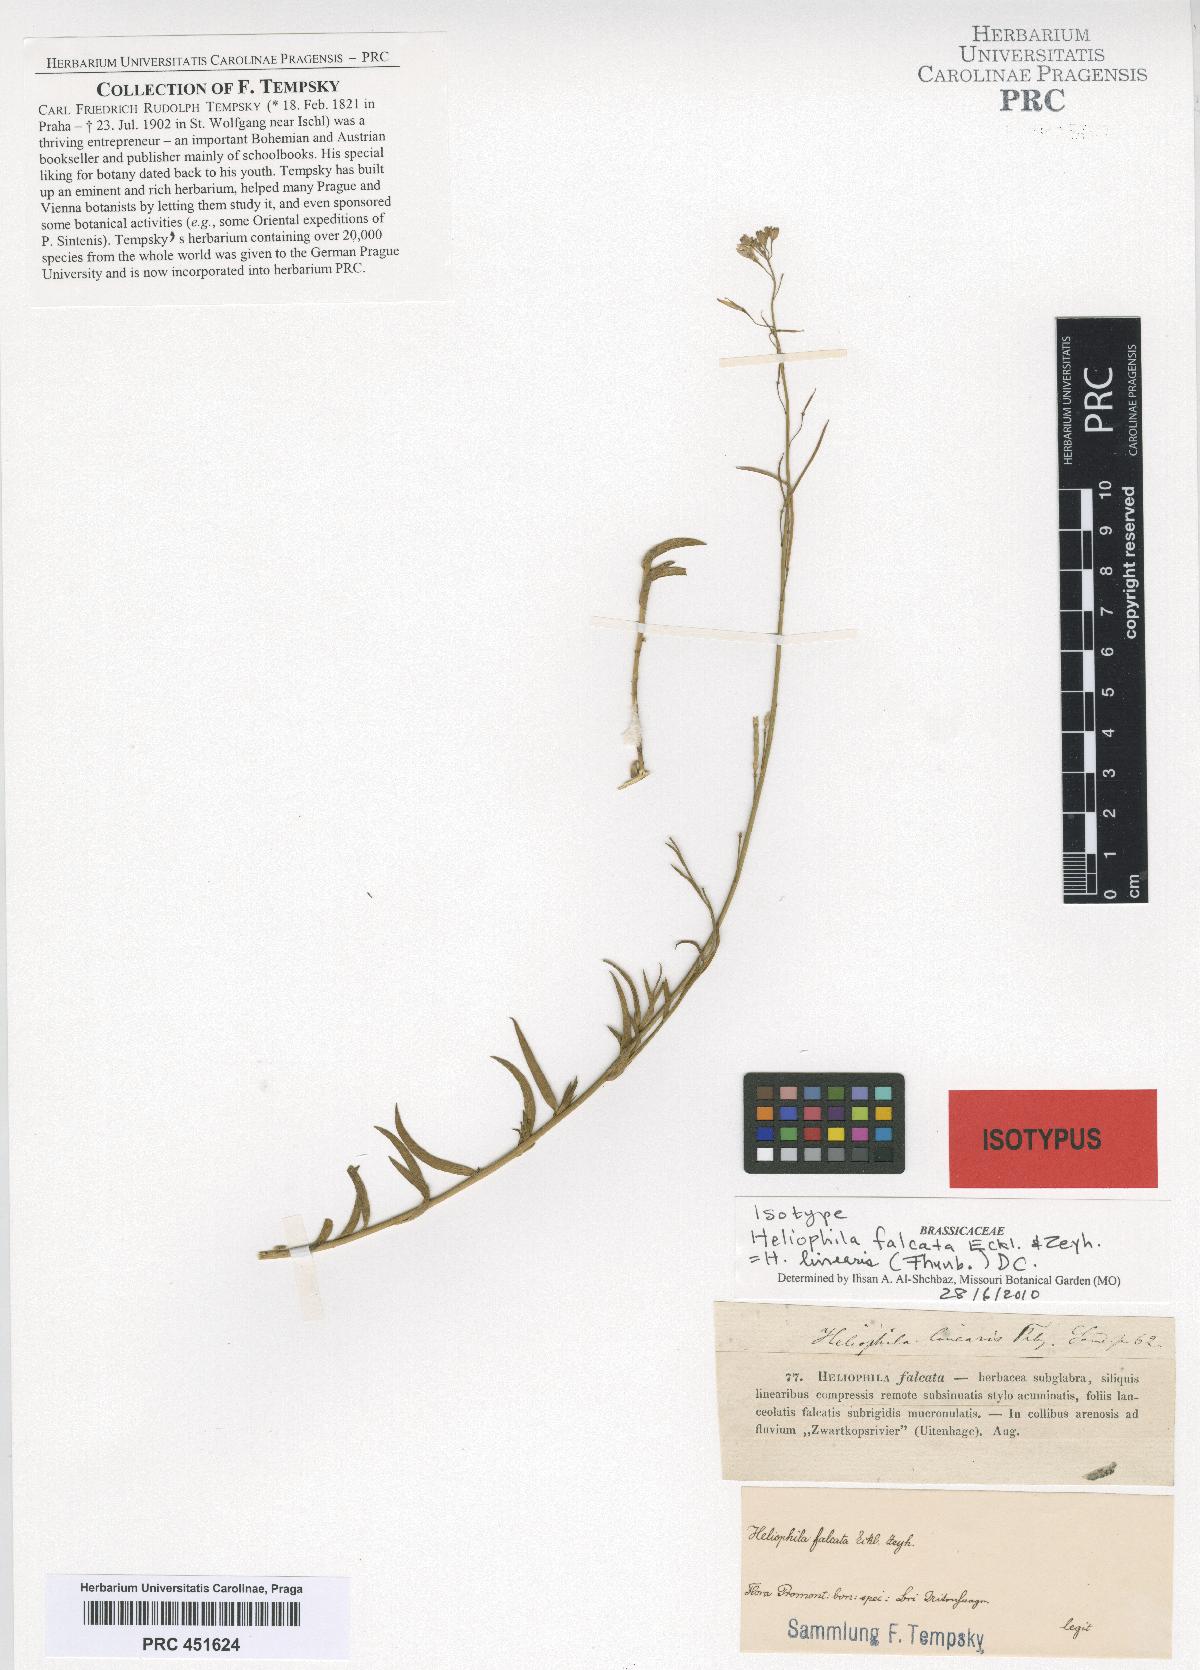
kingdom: Plantae
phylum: Tracheophyta
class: Magnoliopsida
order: Brassicales
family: Brassicaceae
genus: Heliophila
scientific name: Heliophila linearis
